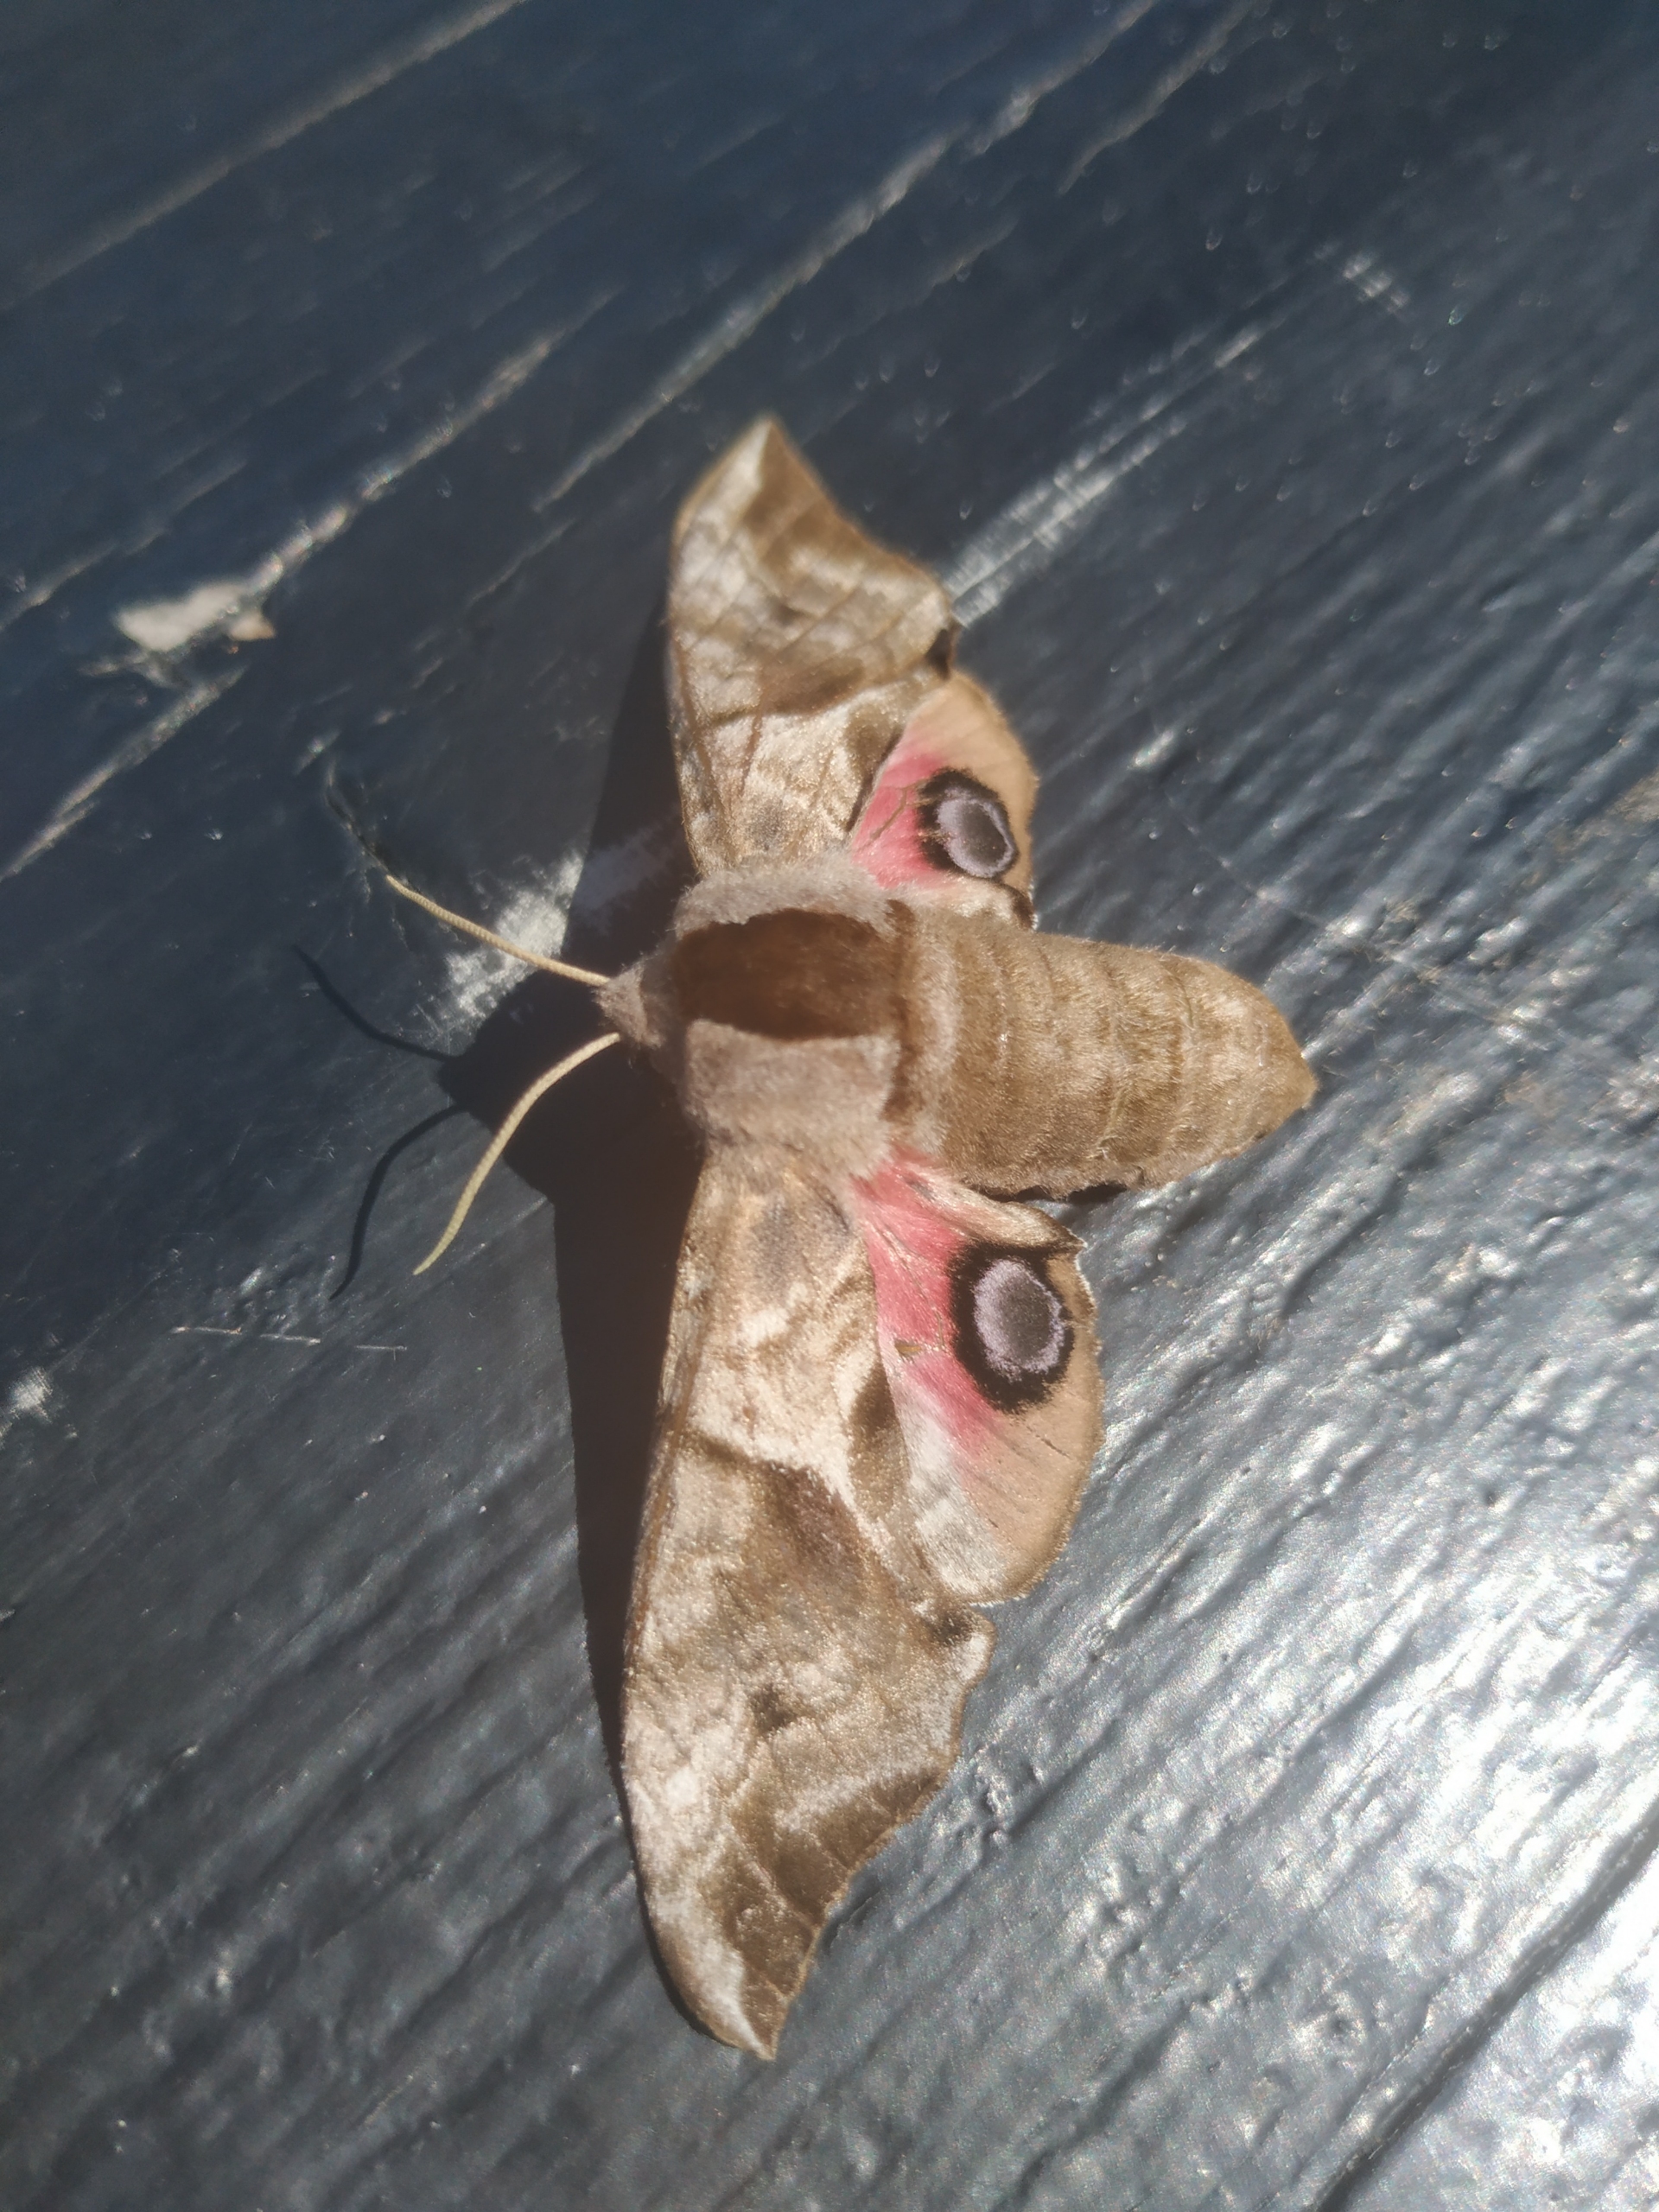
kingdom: Animalia
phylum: Arthropoda
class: Insecta
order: Lepidoptera
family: Sphingidae
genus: Smerinthus
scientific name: Smerinthus ocellata
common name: Aftenpåfugleøje
